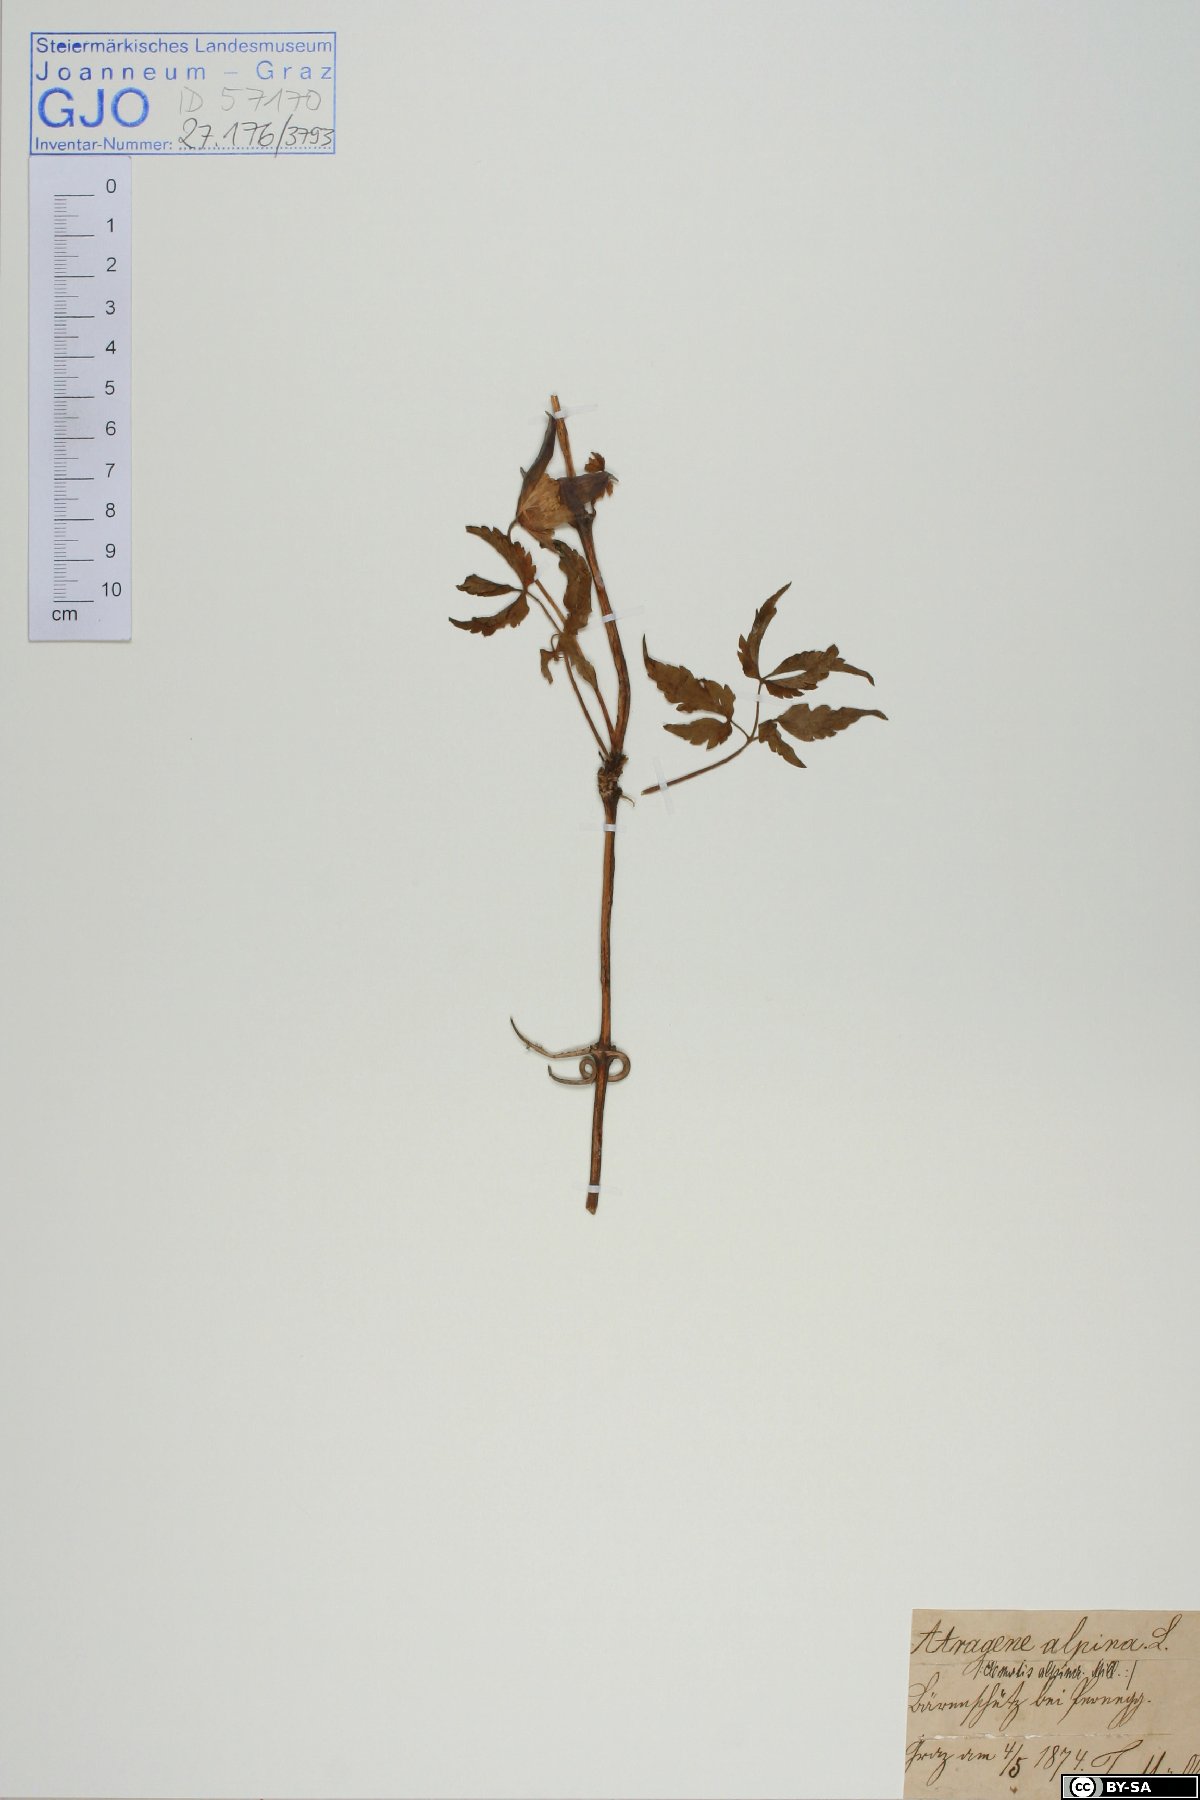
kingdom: Plantae
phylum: Tracheophyta
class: Magnoliopsida
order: Ranunculales
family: Ranunculaceae
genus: Clematis
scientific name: Clematis alpina
